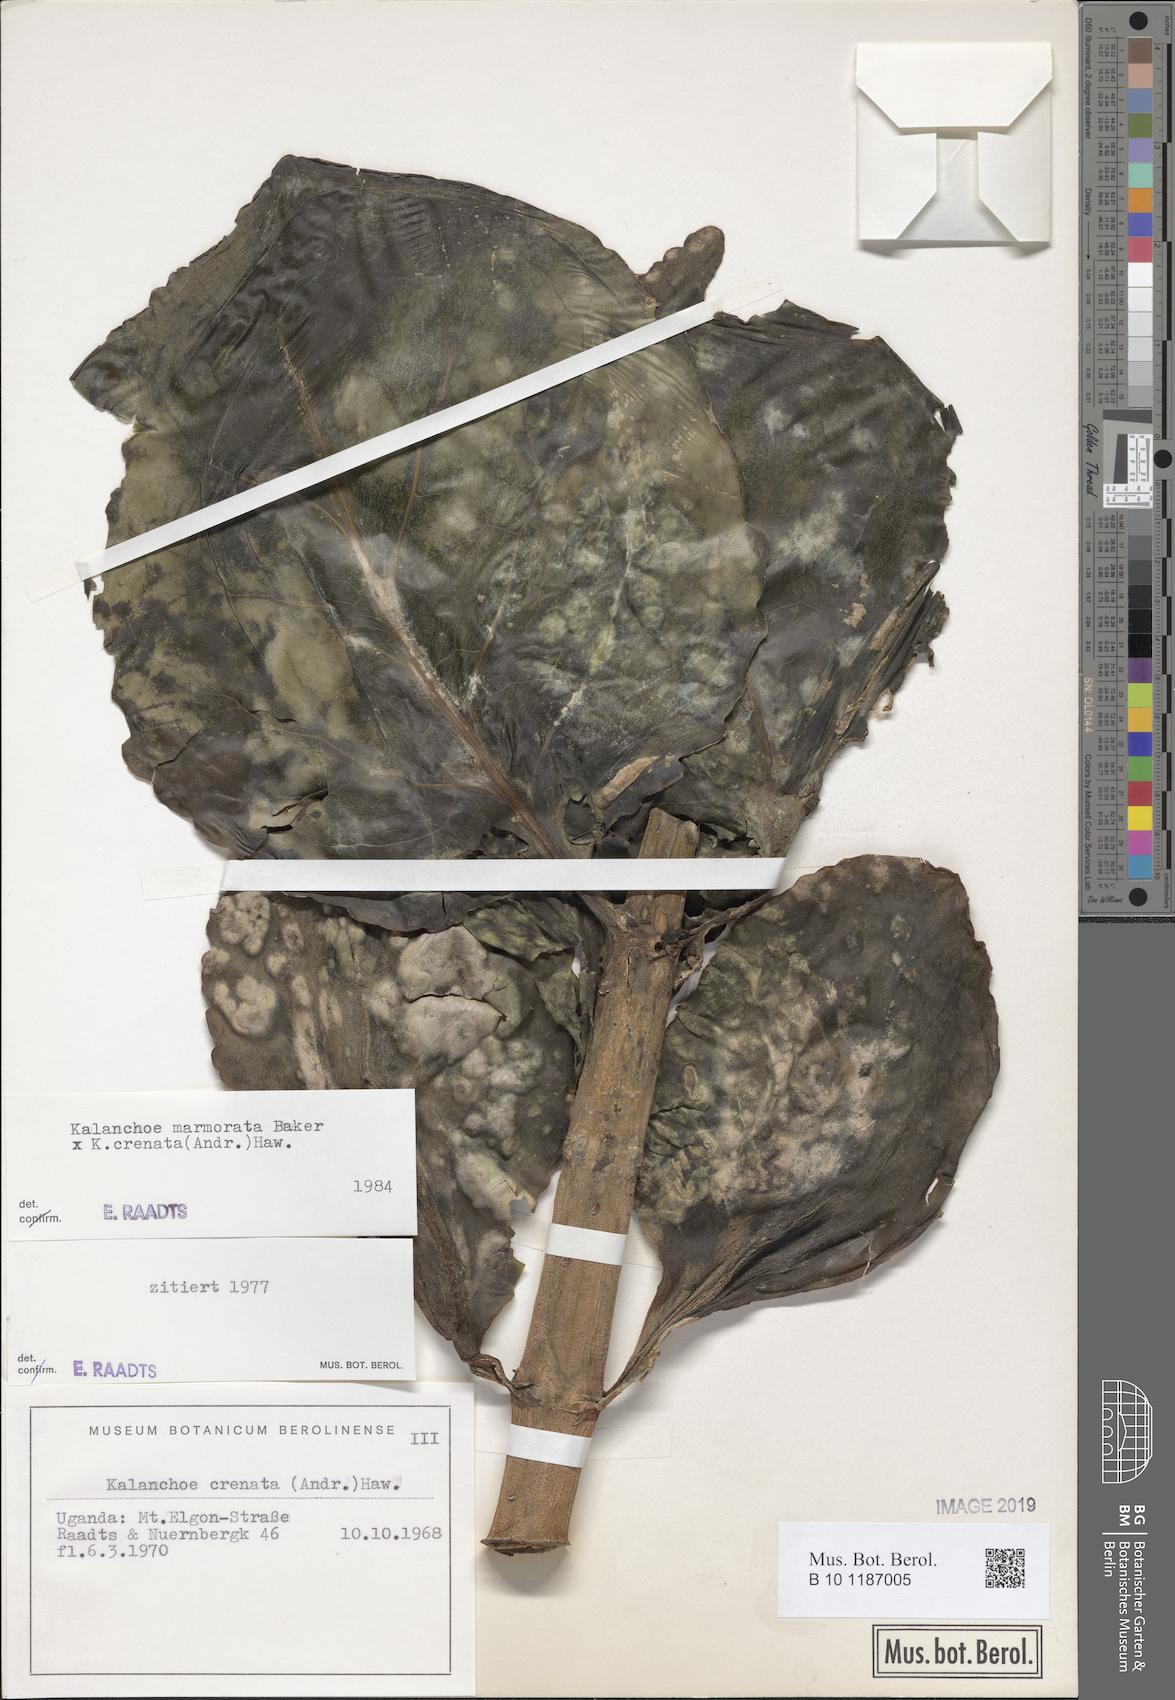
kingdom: Plantae
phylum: Tracheophyta
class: Magnoliopsida
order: Saxifragales
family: Crassulaceae
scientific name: Crassulaceae
